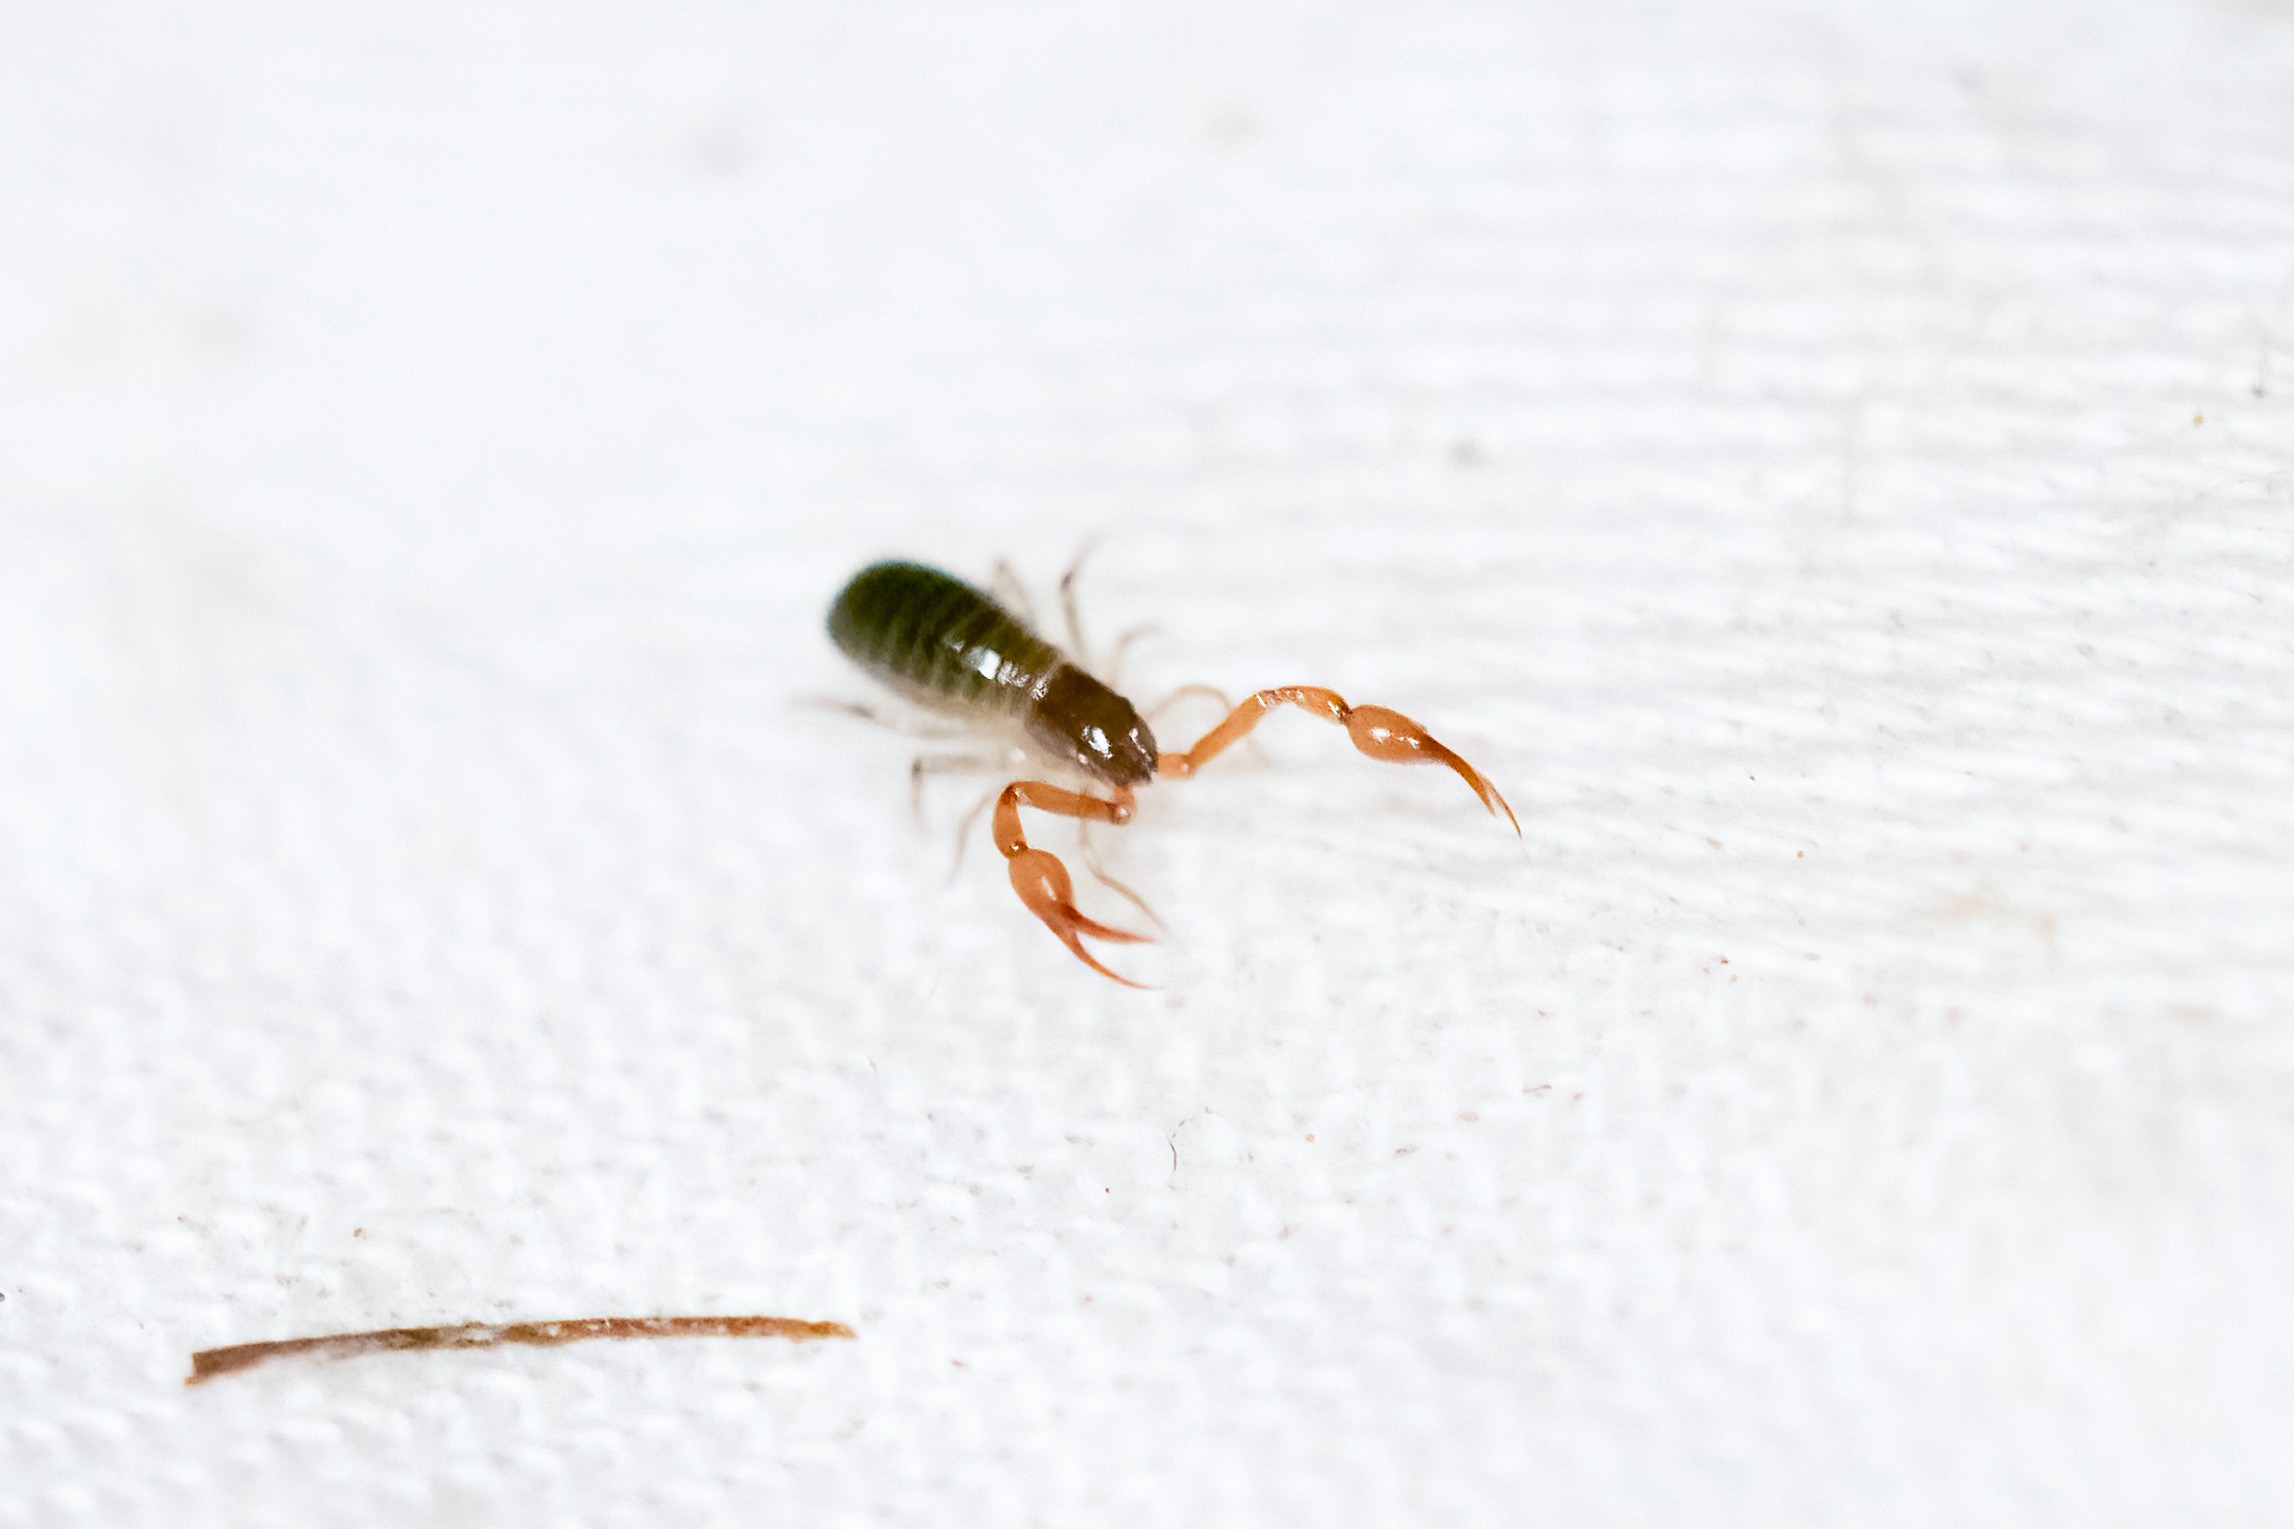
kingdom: Animalia
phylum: Arthropoda
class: Arachnida
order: Pseudoscorpiones
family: Neobisiidae
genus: Neobisium
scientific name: Neobisium carcinoides
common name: Almindelig mosskorpion
